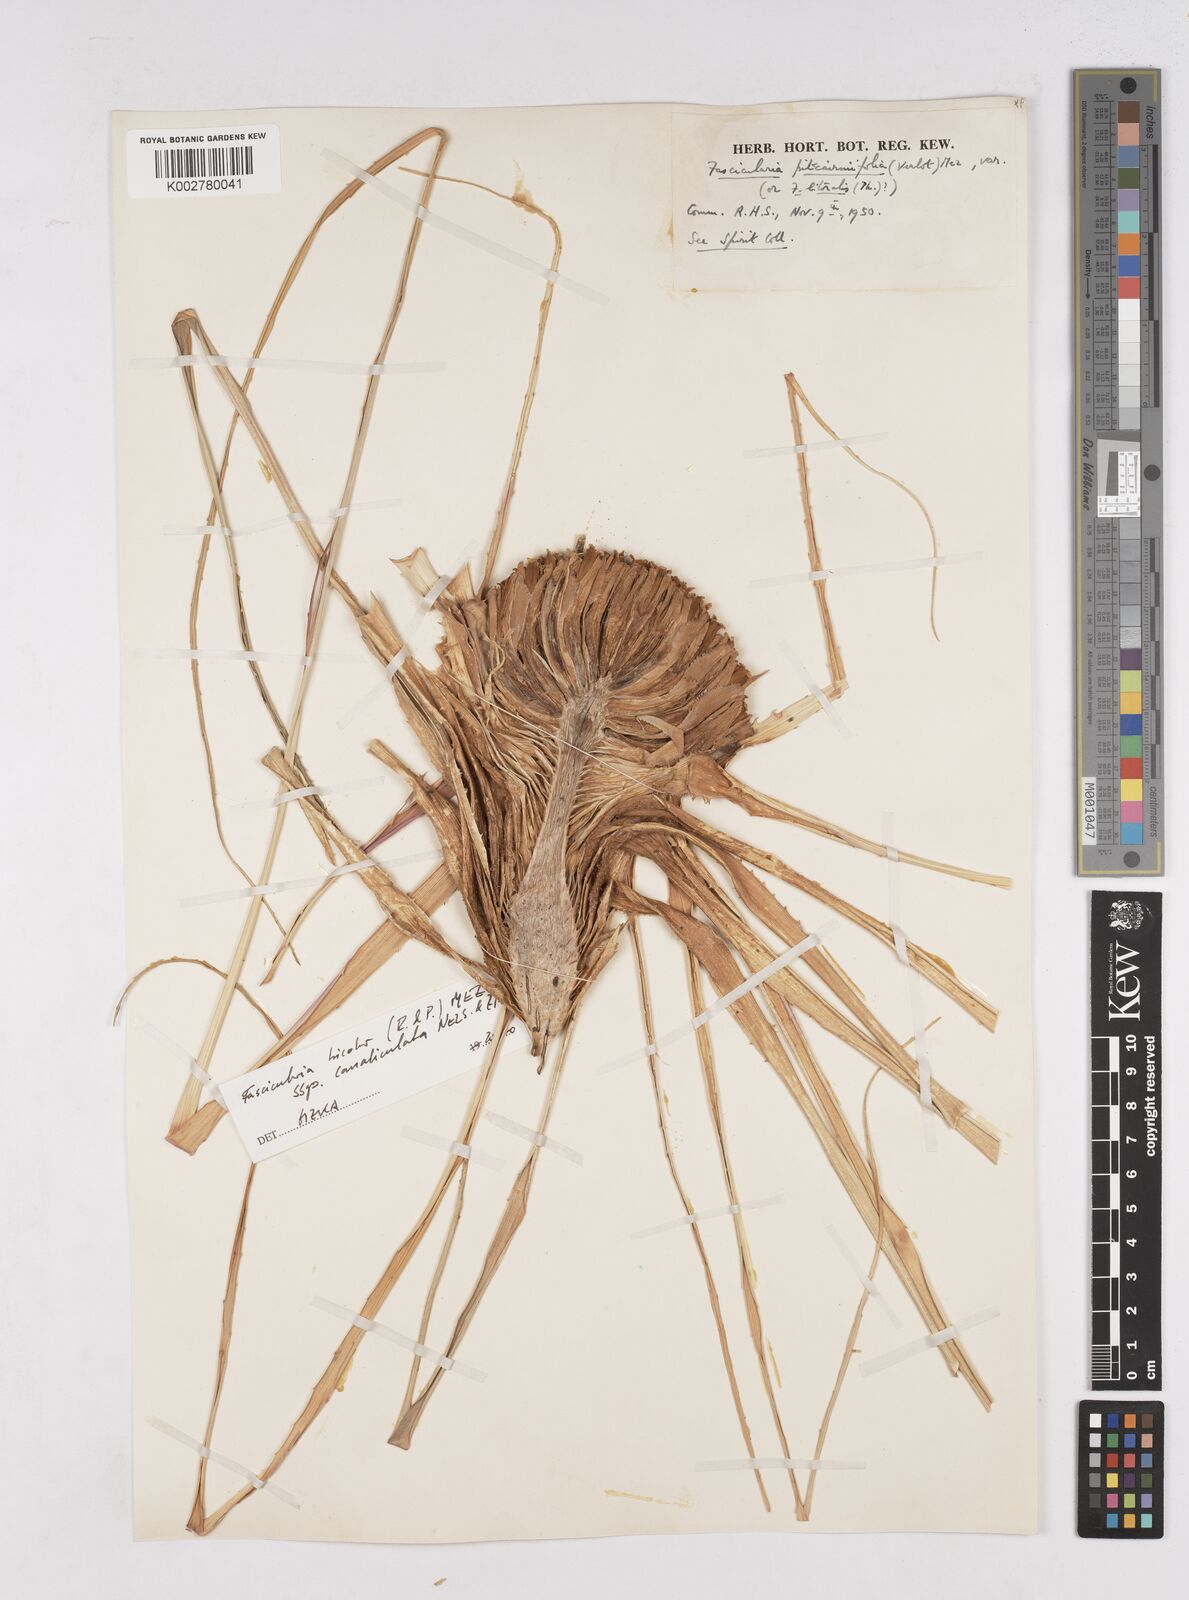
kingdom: Plantae
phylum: Tracheophyta
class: Liliopsida
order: Poales
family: Bromeliaceae
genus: Hechtia
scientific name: Hechtia pitcairniifolia
